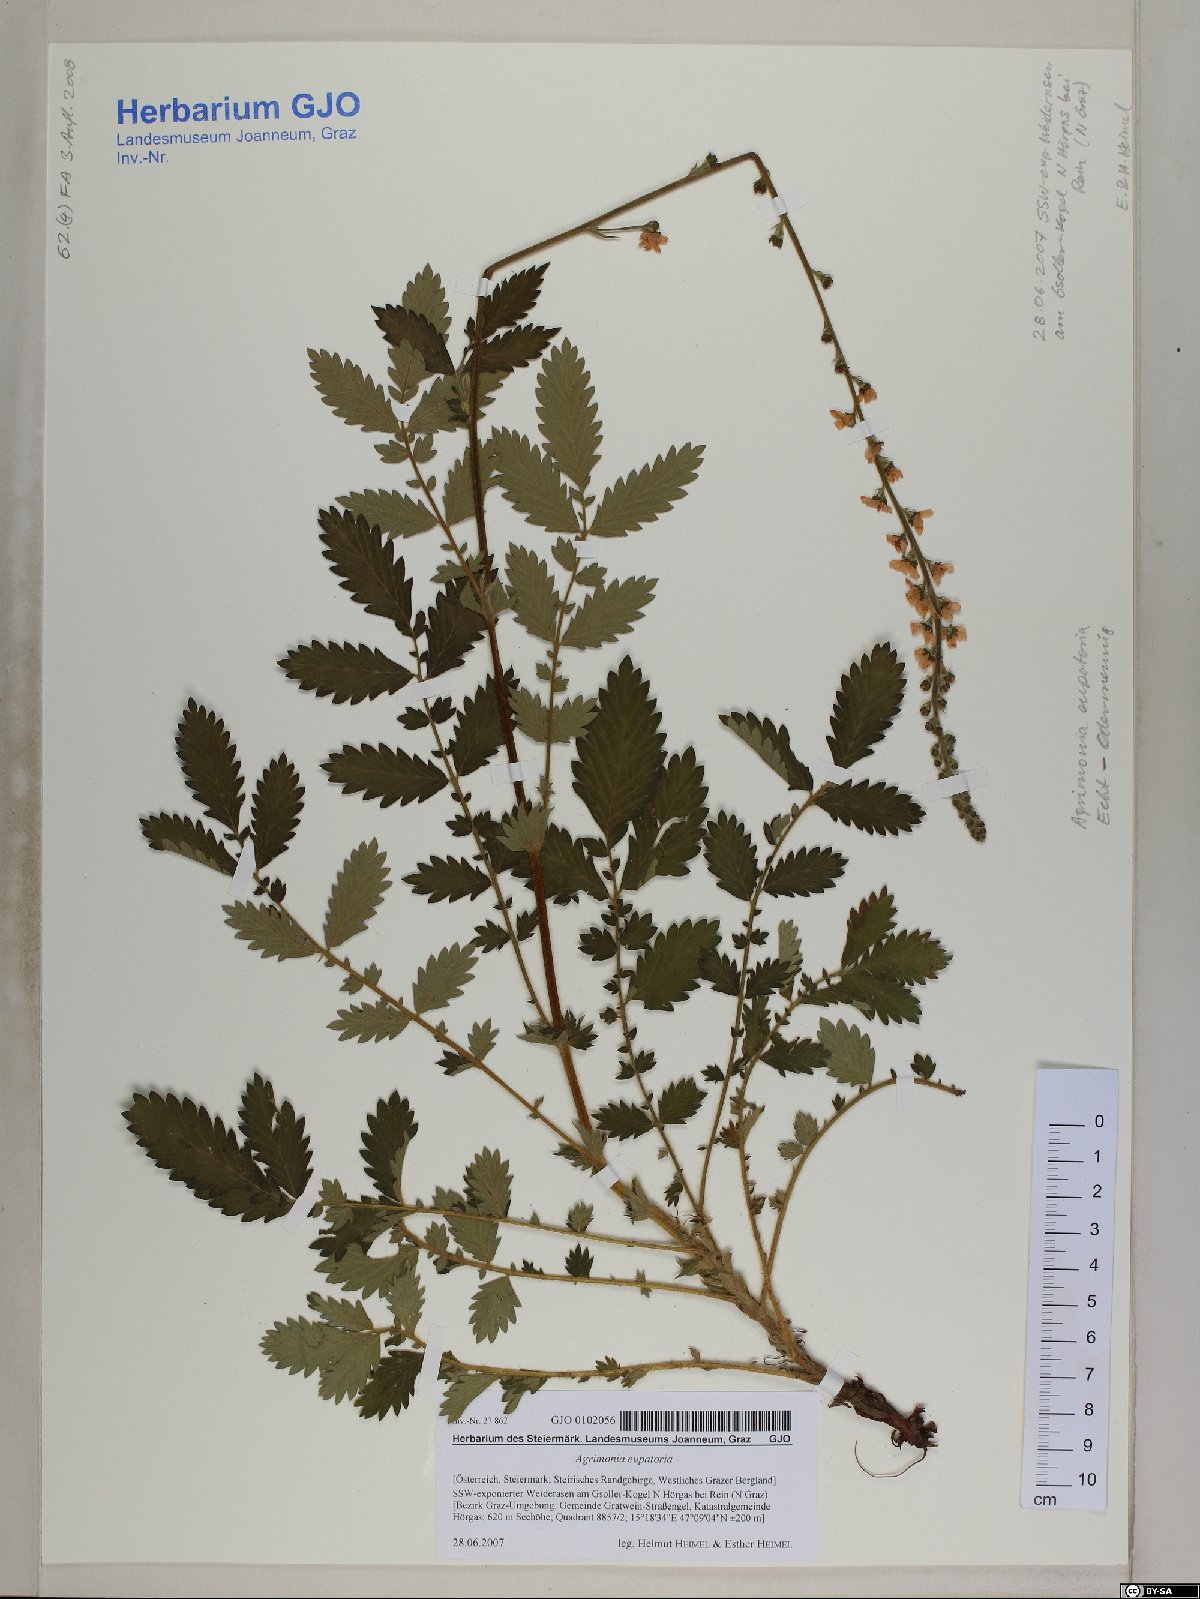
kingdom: Plantae
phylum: Tracheophyta
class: Magnoliopsida
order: Rosales
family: Rosaceae
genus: Agrimonia
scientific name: Agrimonia eupatoria
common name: Agrimony
